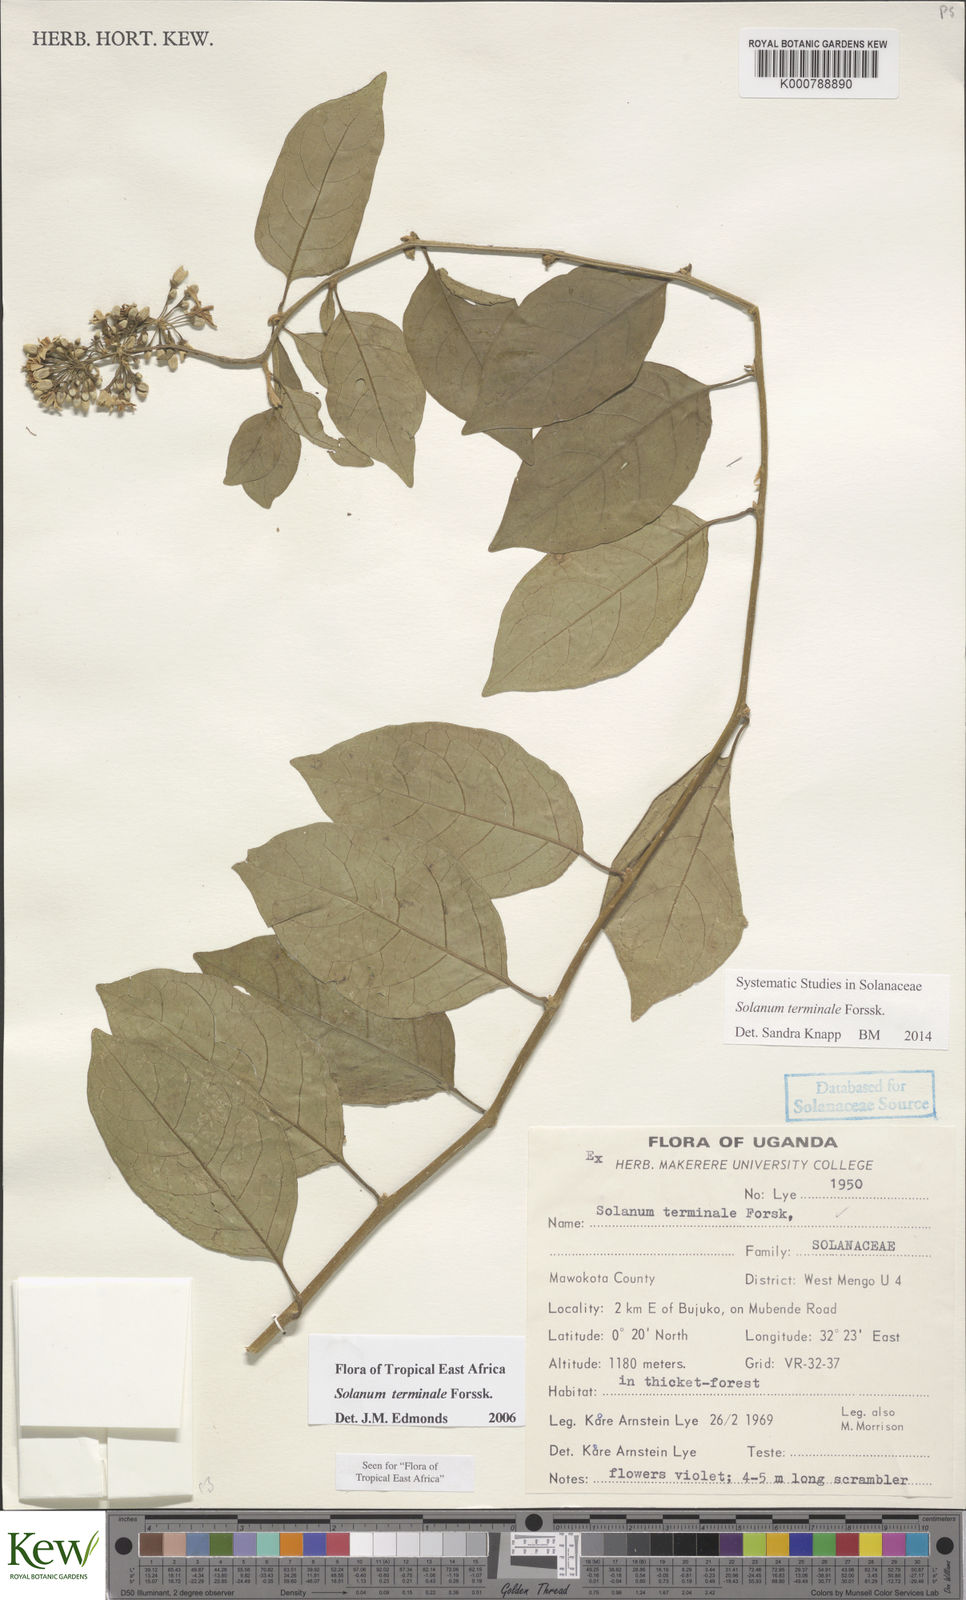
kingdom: Plantae
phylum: Tracheophyta
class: Magnoliopsida
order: Solanales
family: Solanaceae
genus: Solanum
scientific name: Solanum terminale
